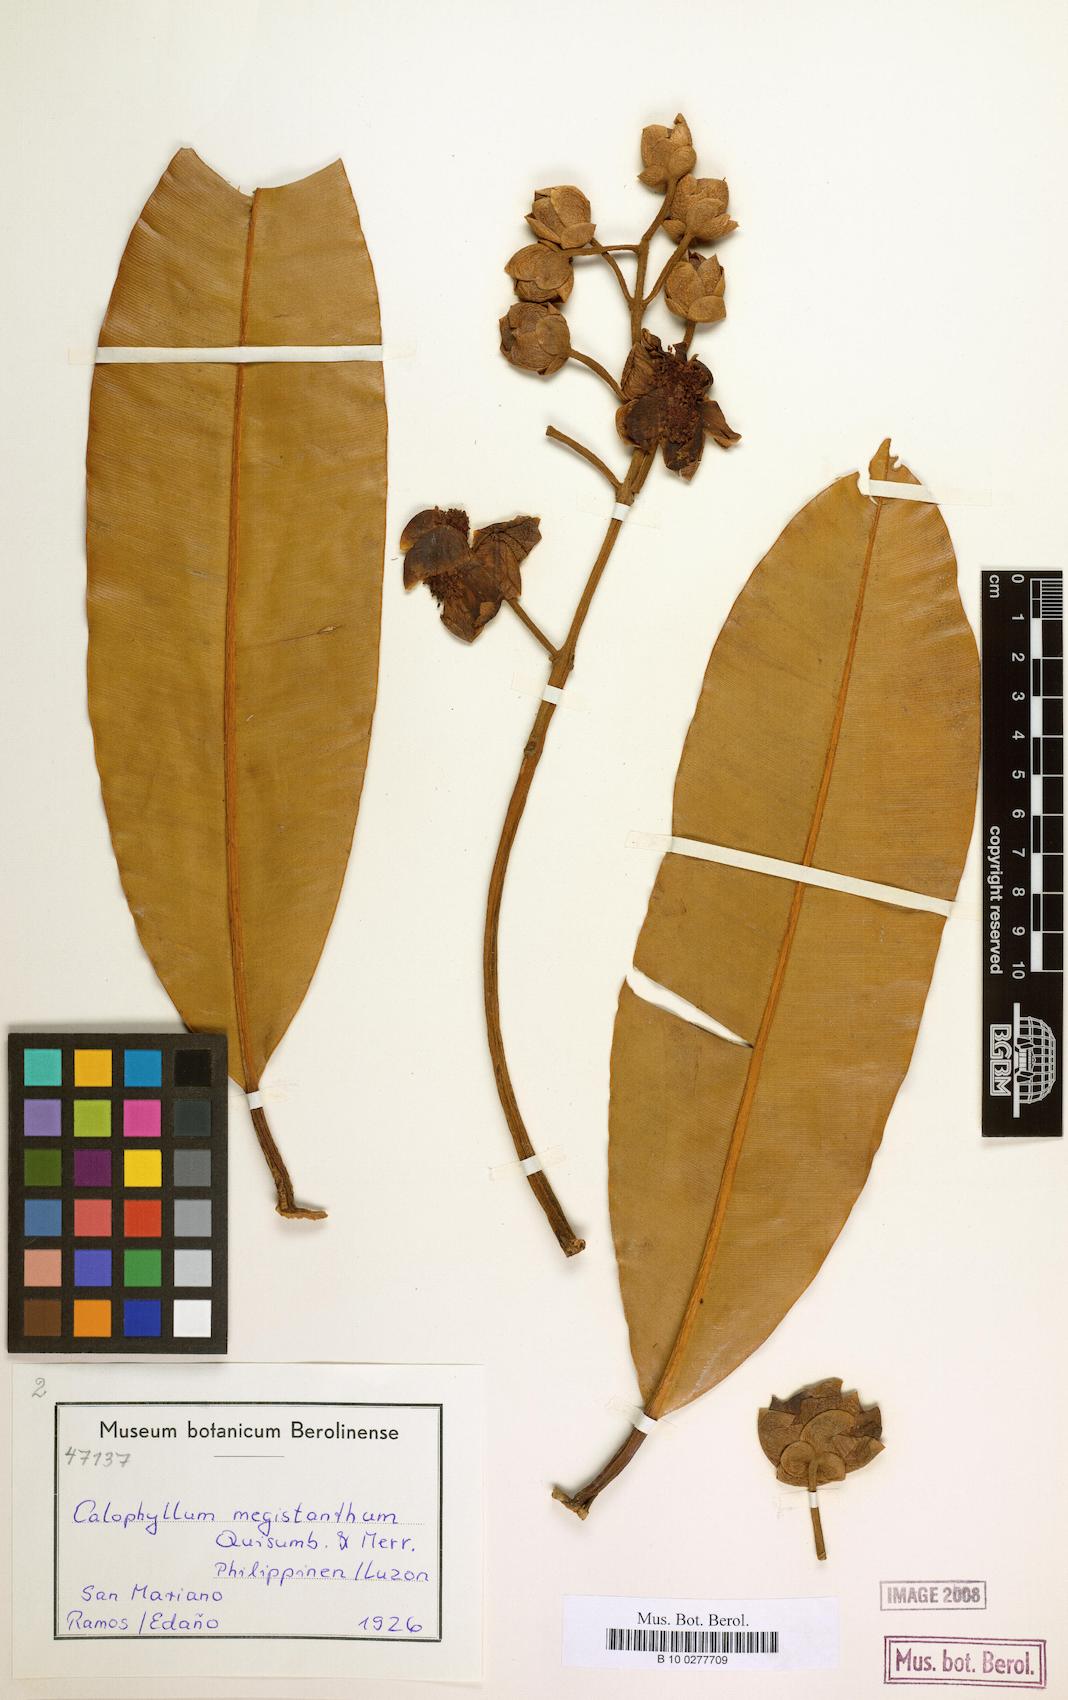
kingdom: Plantae
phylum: Tracheophyta
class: Magnoliopsida
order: Malpighiales
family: Calophyllaceae
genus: Calophyllum
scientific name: Calophyllum blancoi
